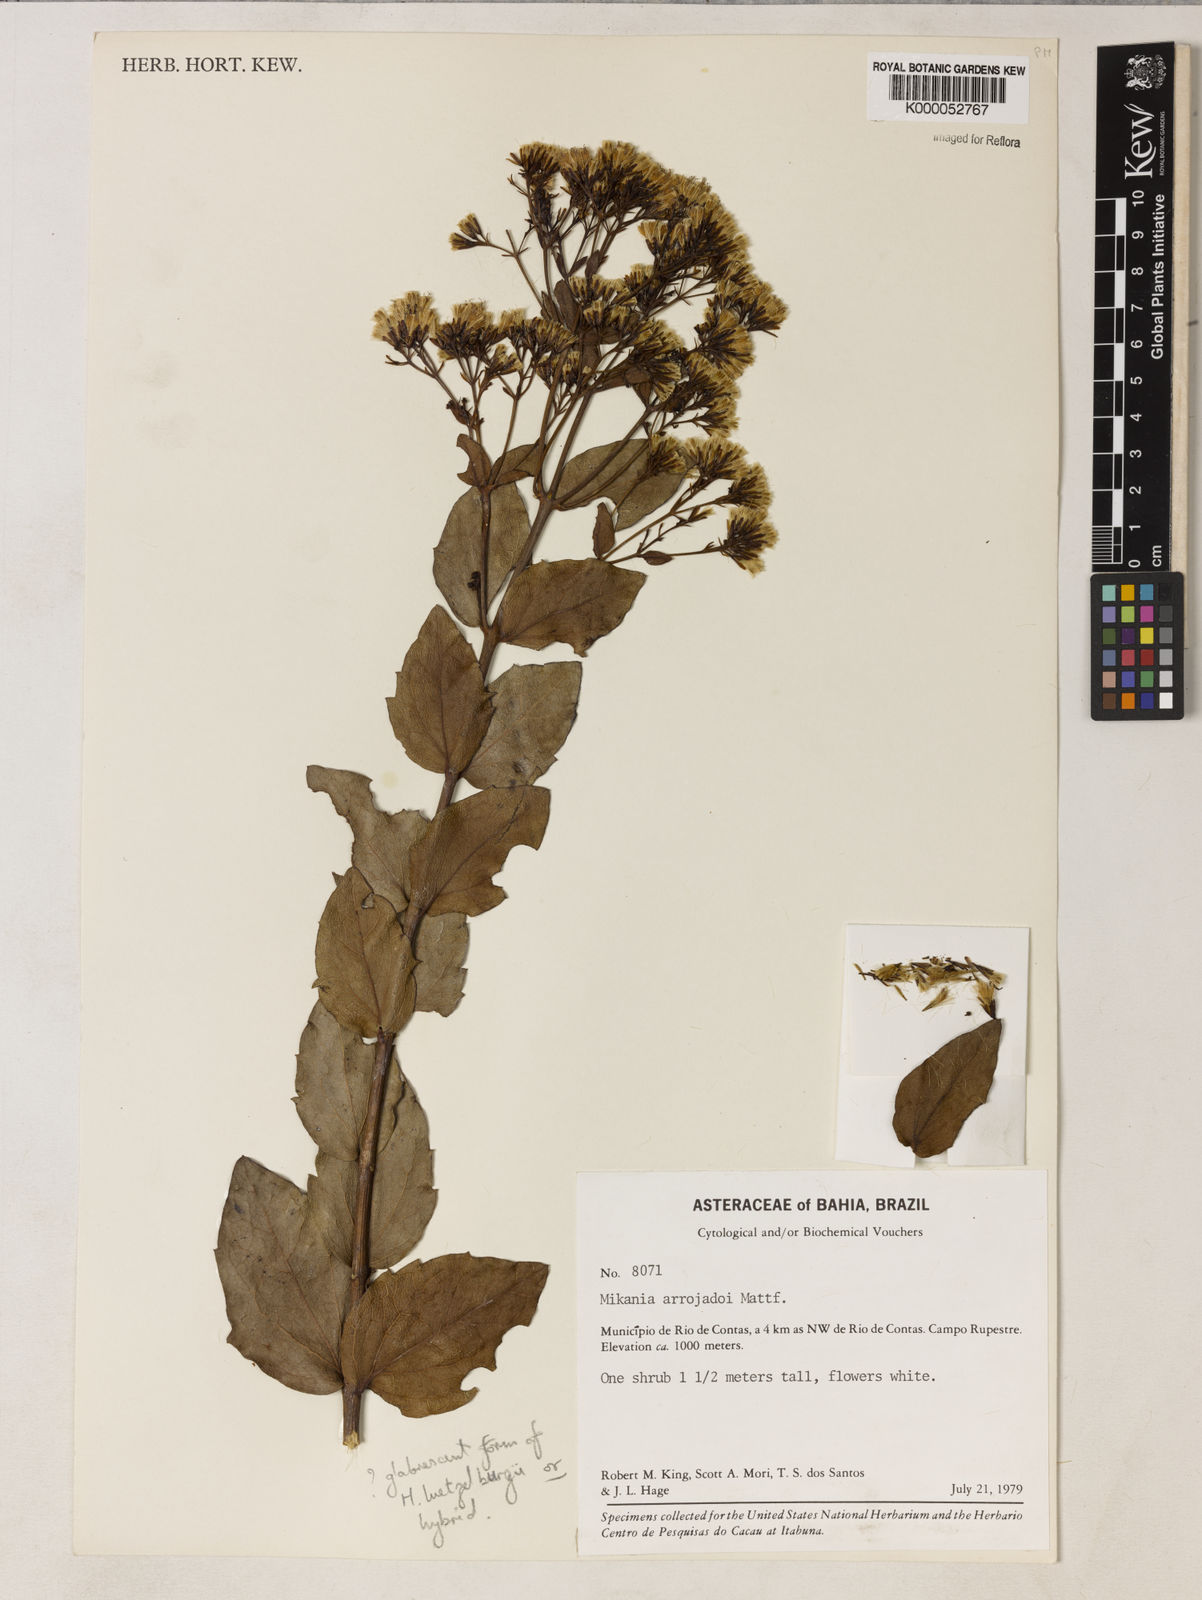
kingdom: Plantae
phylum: Tracheophyta
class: Magnoliopsida
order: Asterales
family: Asteraceae
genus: Mikania
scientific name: Mikania arrojadoi
